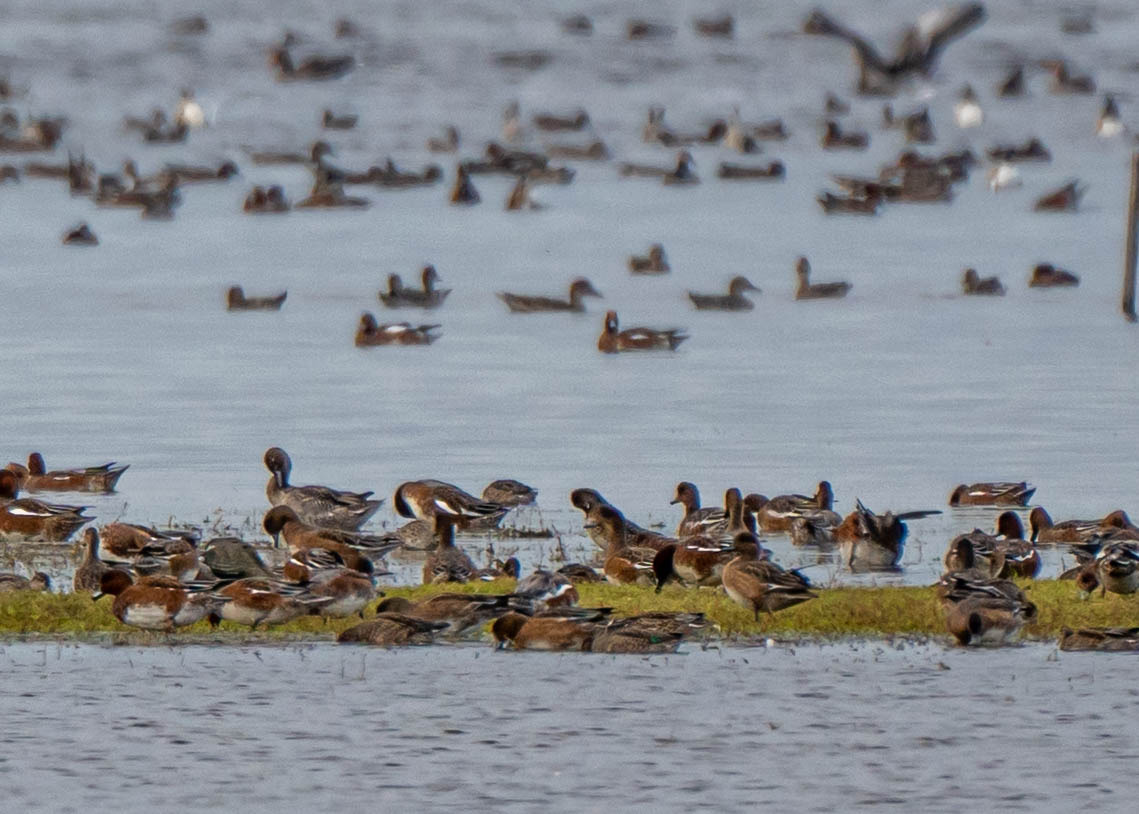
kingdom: Animalia
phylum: Chordata
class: Aves
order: Anseriformes
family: Anatidae
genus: Mareca
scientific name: Mareca penelope
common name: Pibeand
